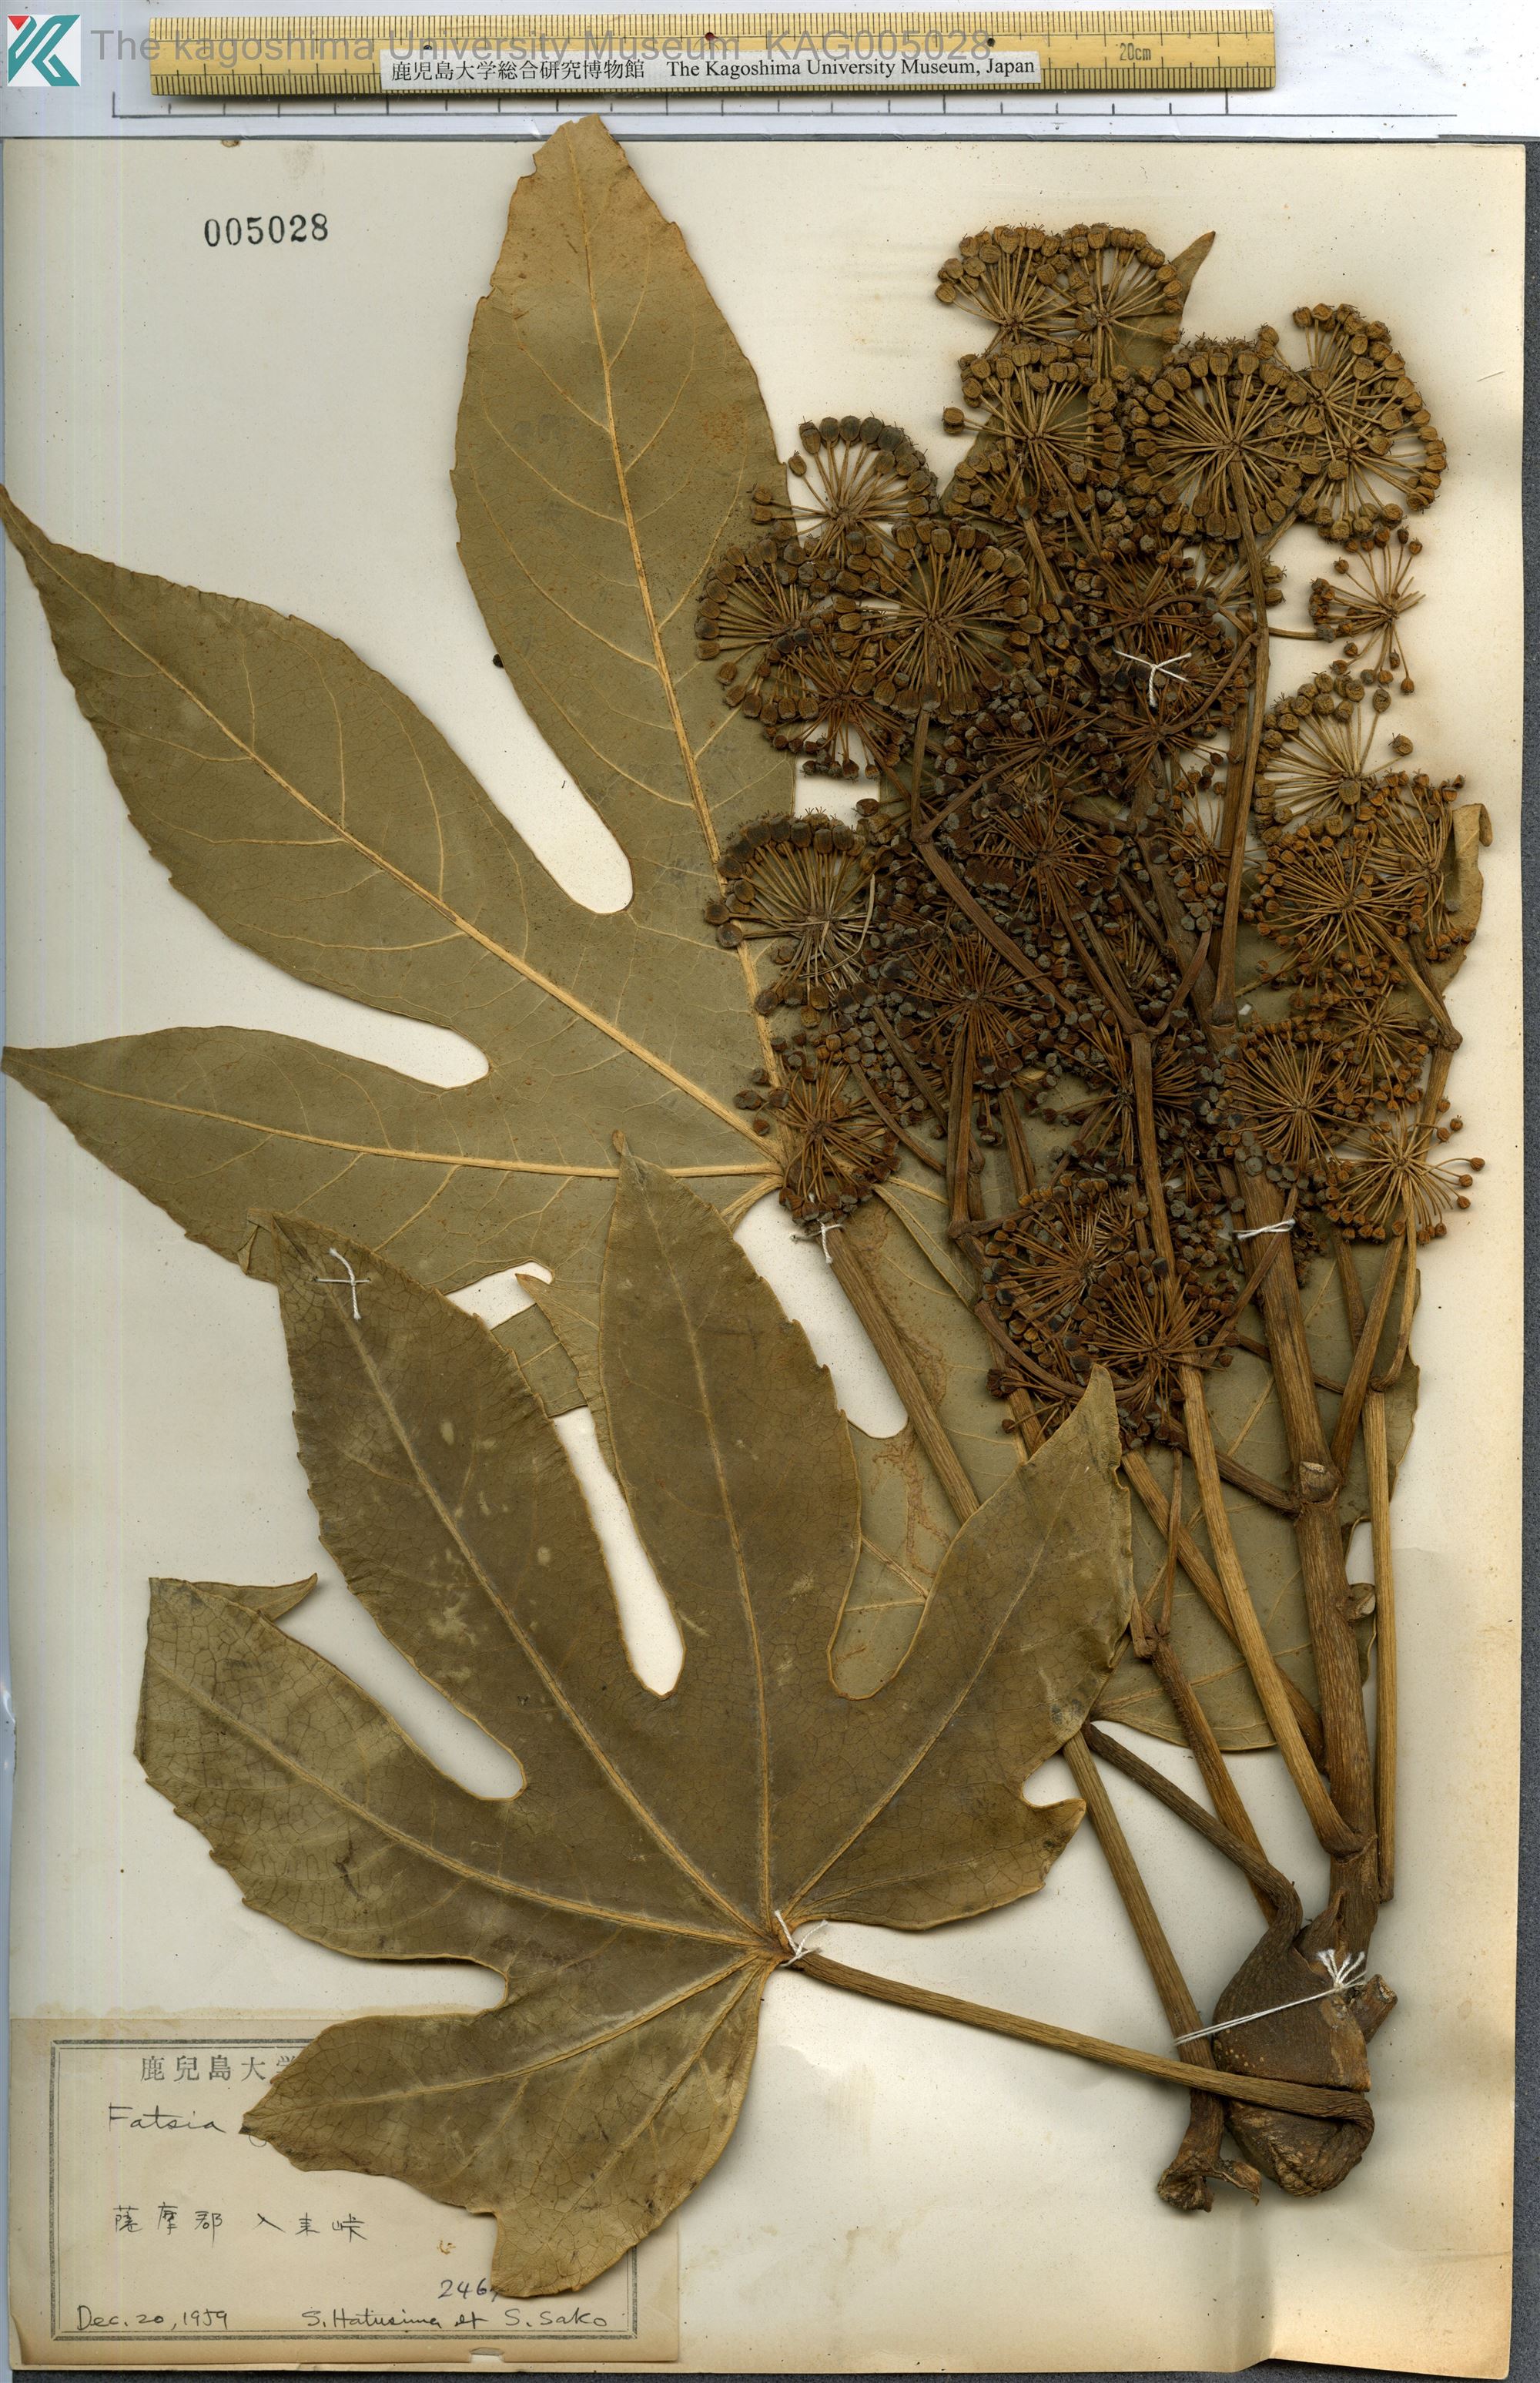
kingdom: Plantae
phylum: Tracheophyta
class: Magnoliopsida
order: Apiales
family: Araliaceae
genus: Fatsia
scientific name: Fatsia japonica
